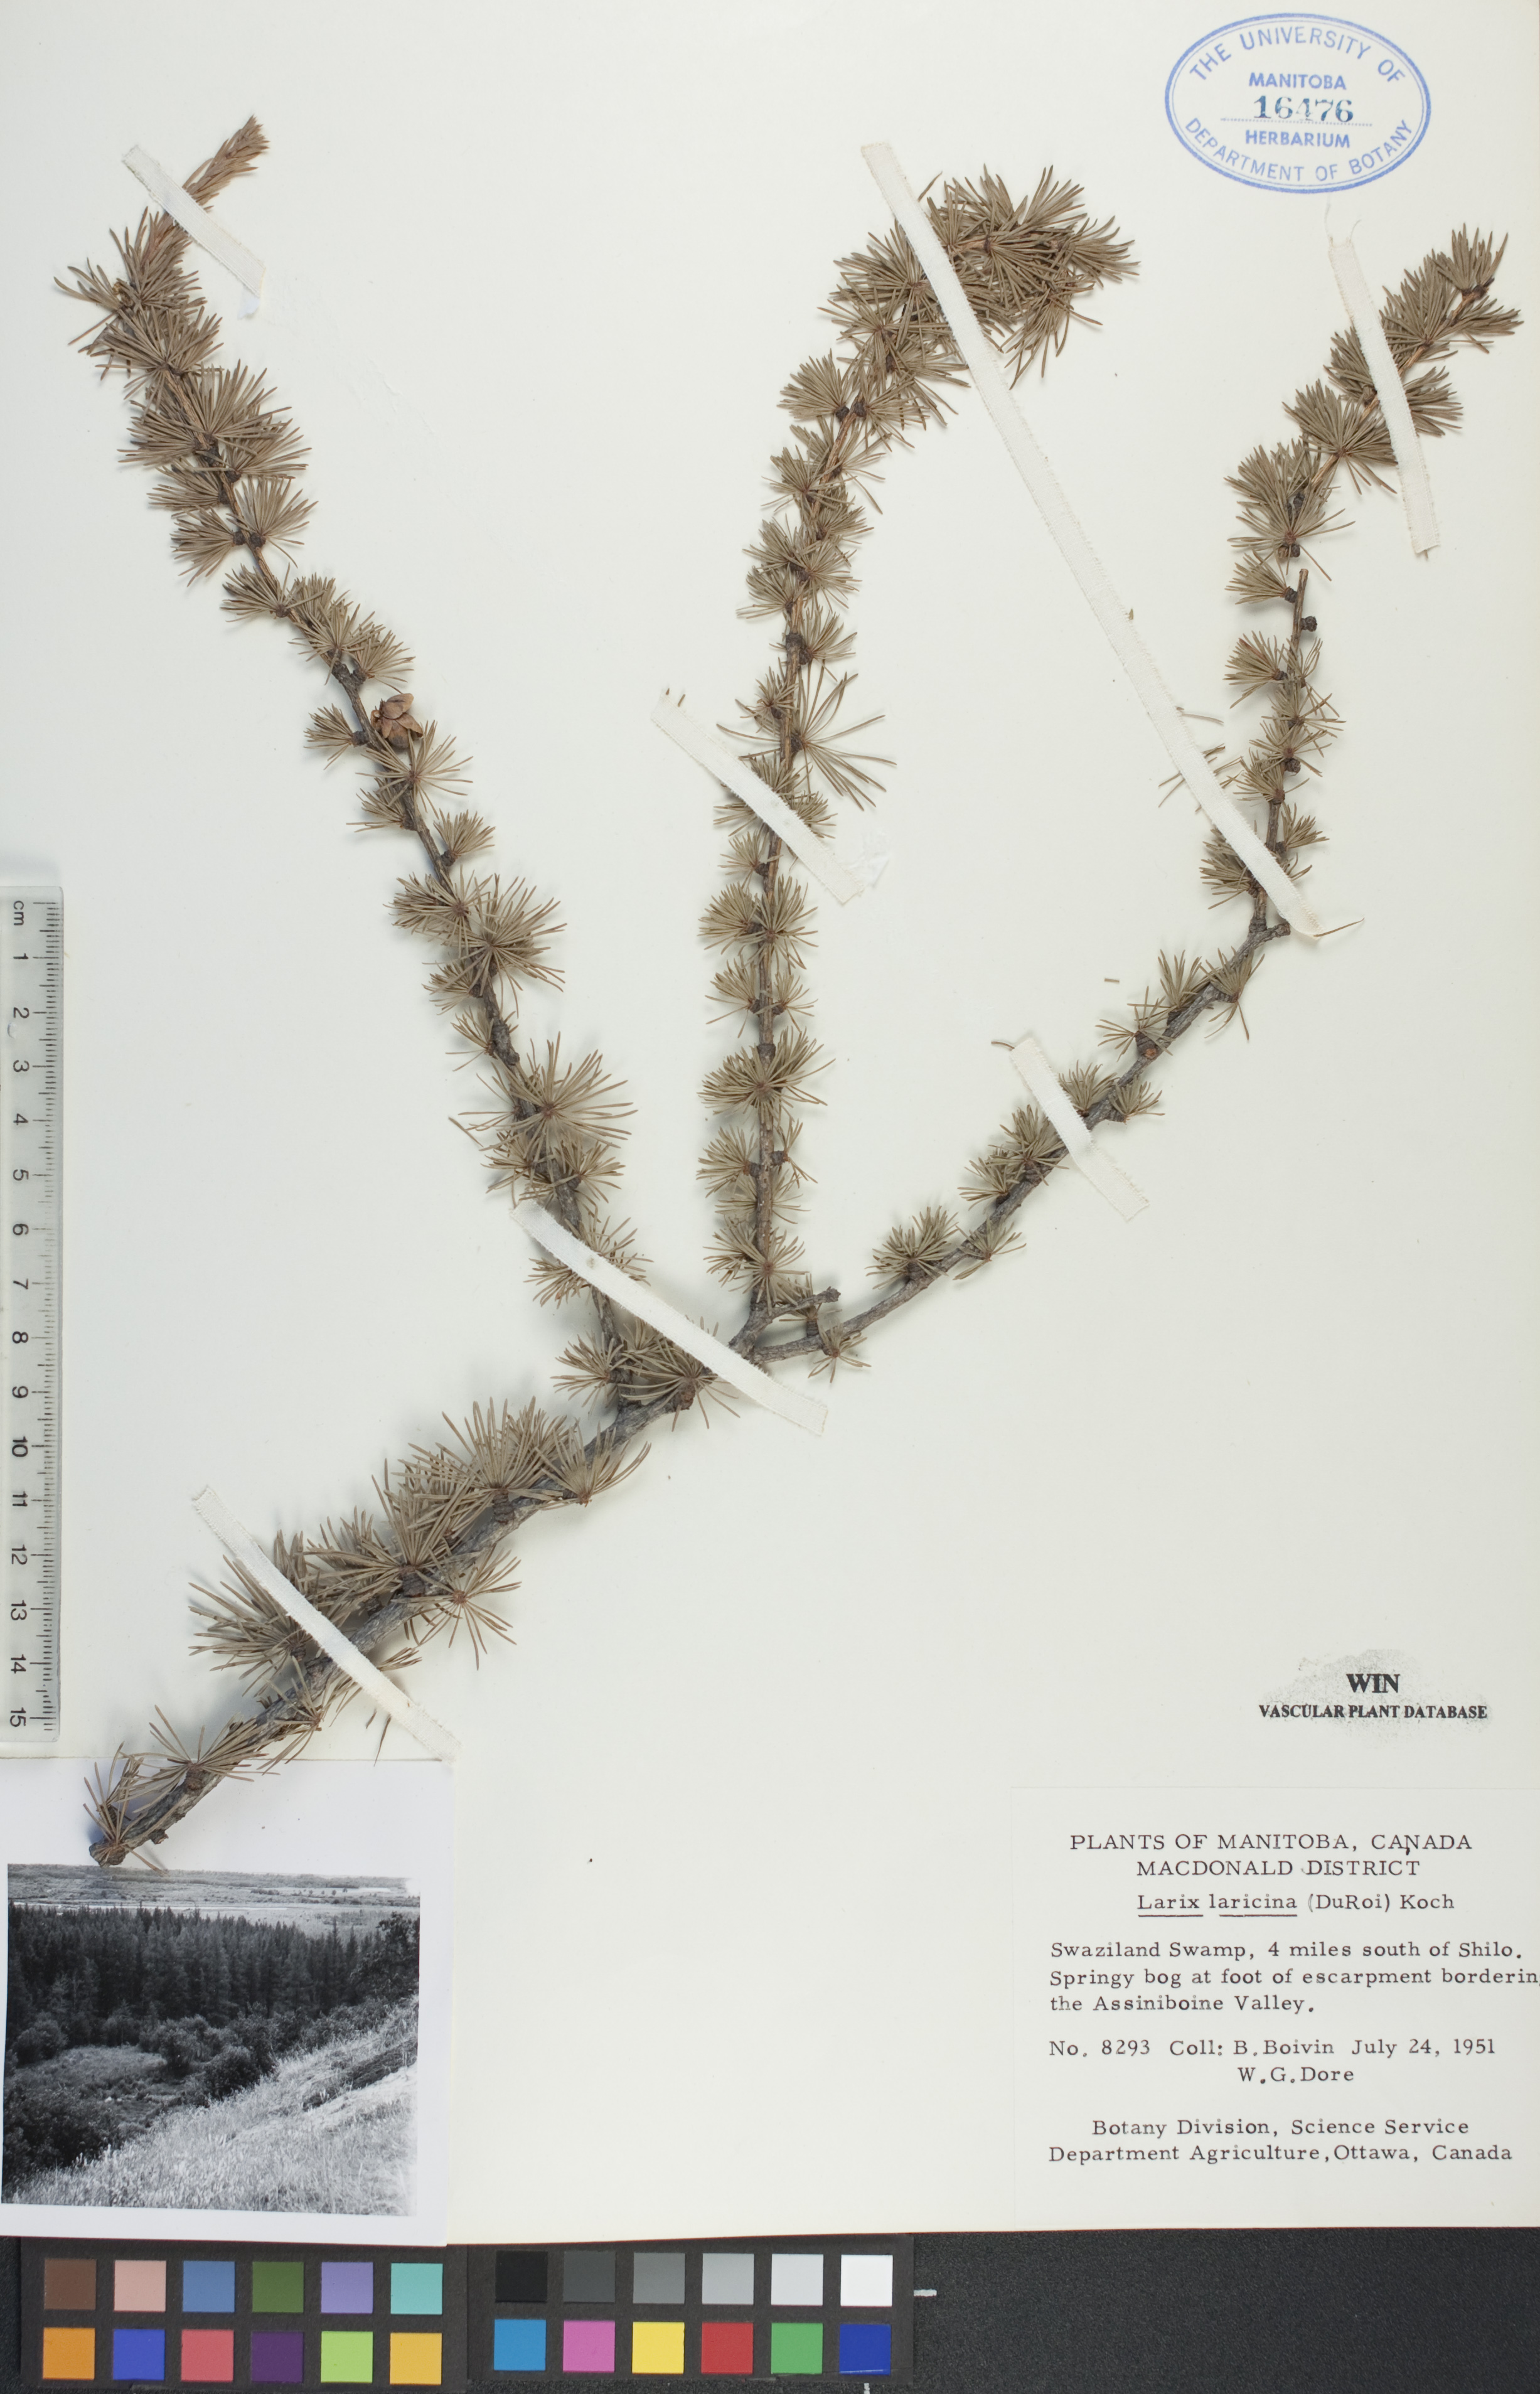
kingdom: Plantae
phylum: Tracheophyta
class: Pinopsida
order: Pinales
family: Pinaceae
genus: Larix
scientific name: Larix laricina
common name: American larch
